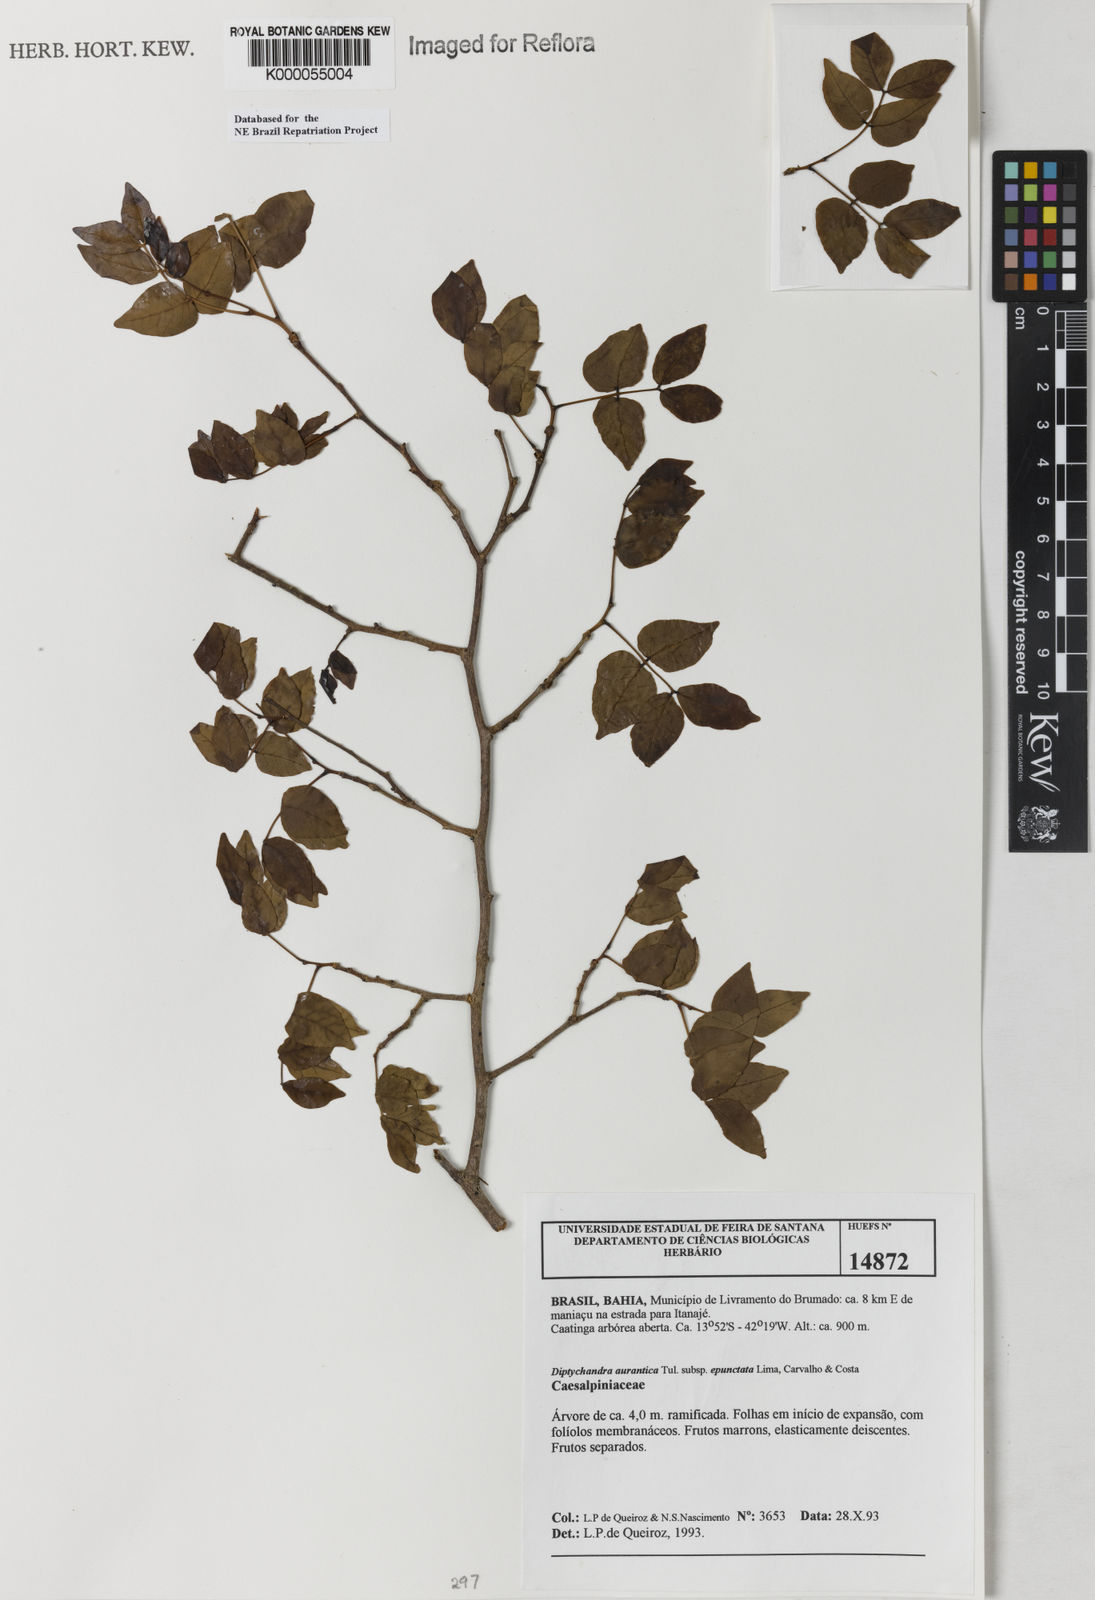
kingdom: Plantae
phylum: Tracheophyta
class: Magnoliopsida
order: Fabales
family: Fabaceae
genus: Diptychandra
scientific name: Diptychandra
